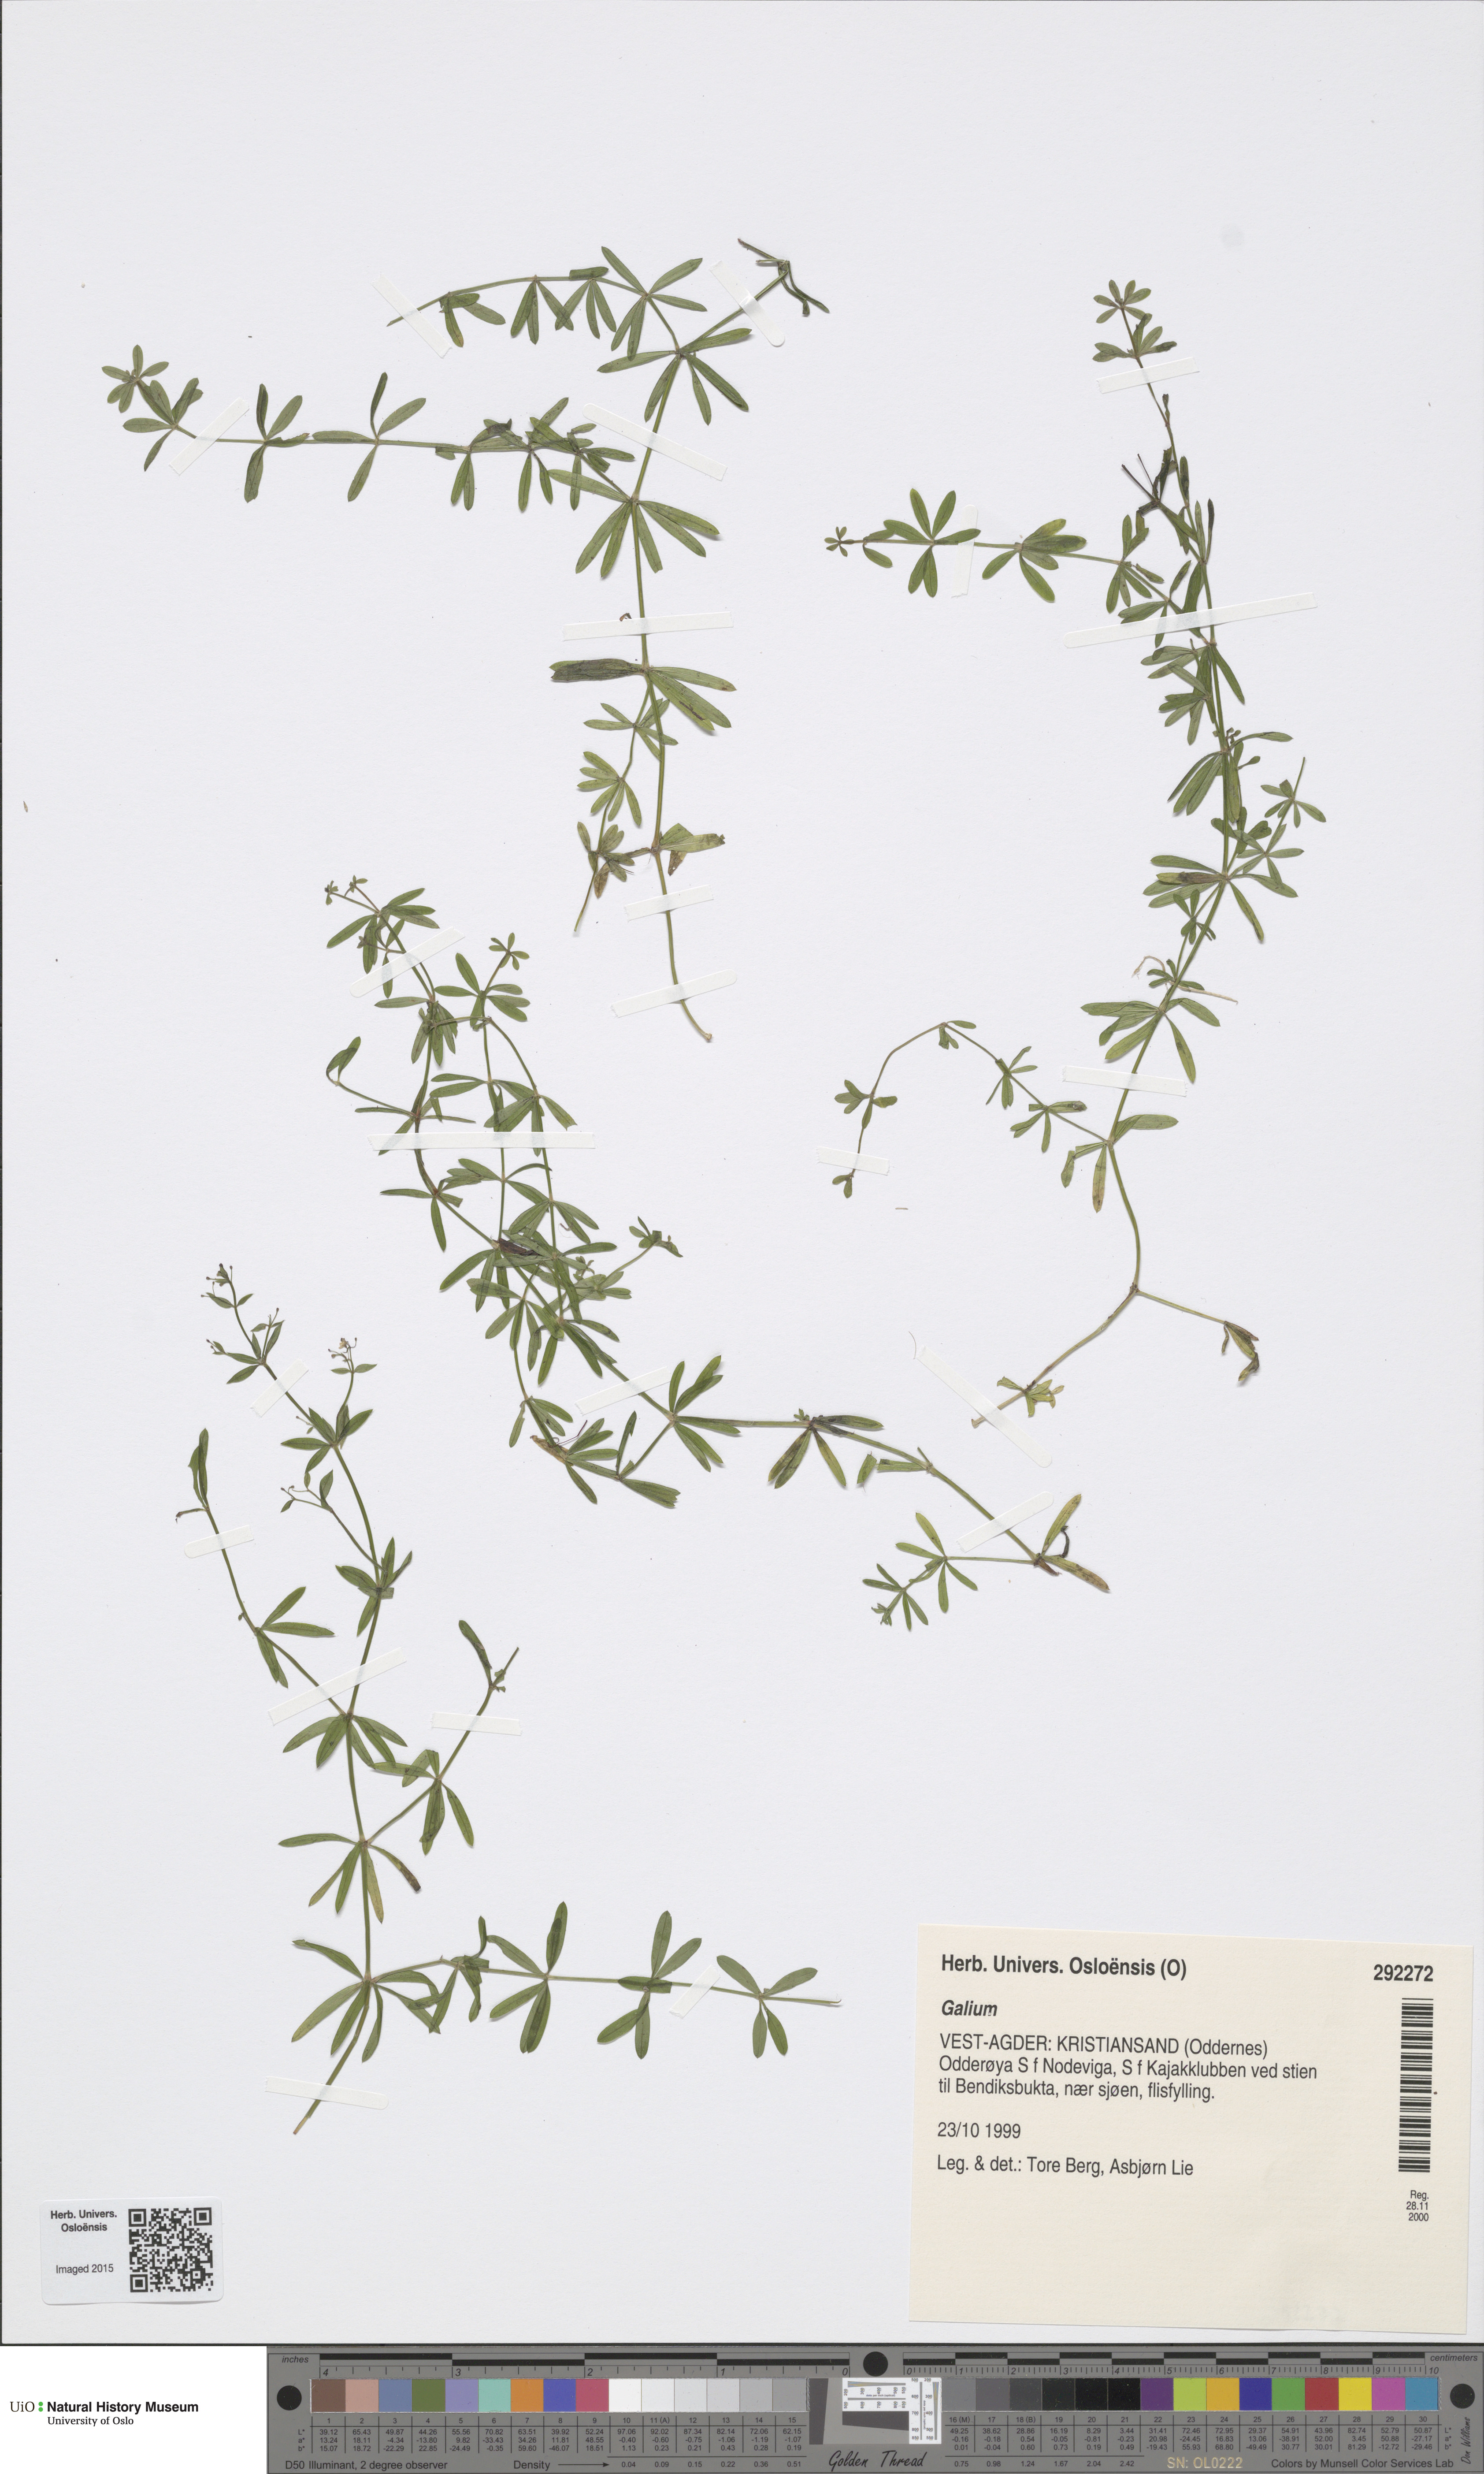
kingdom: Plantae
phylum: Tracheophyta
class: Magnoliopsida
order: Gentianales
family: Rubiaceae
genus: Galium
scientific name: Galium
